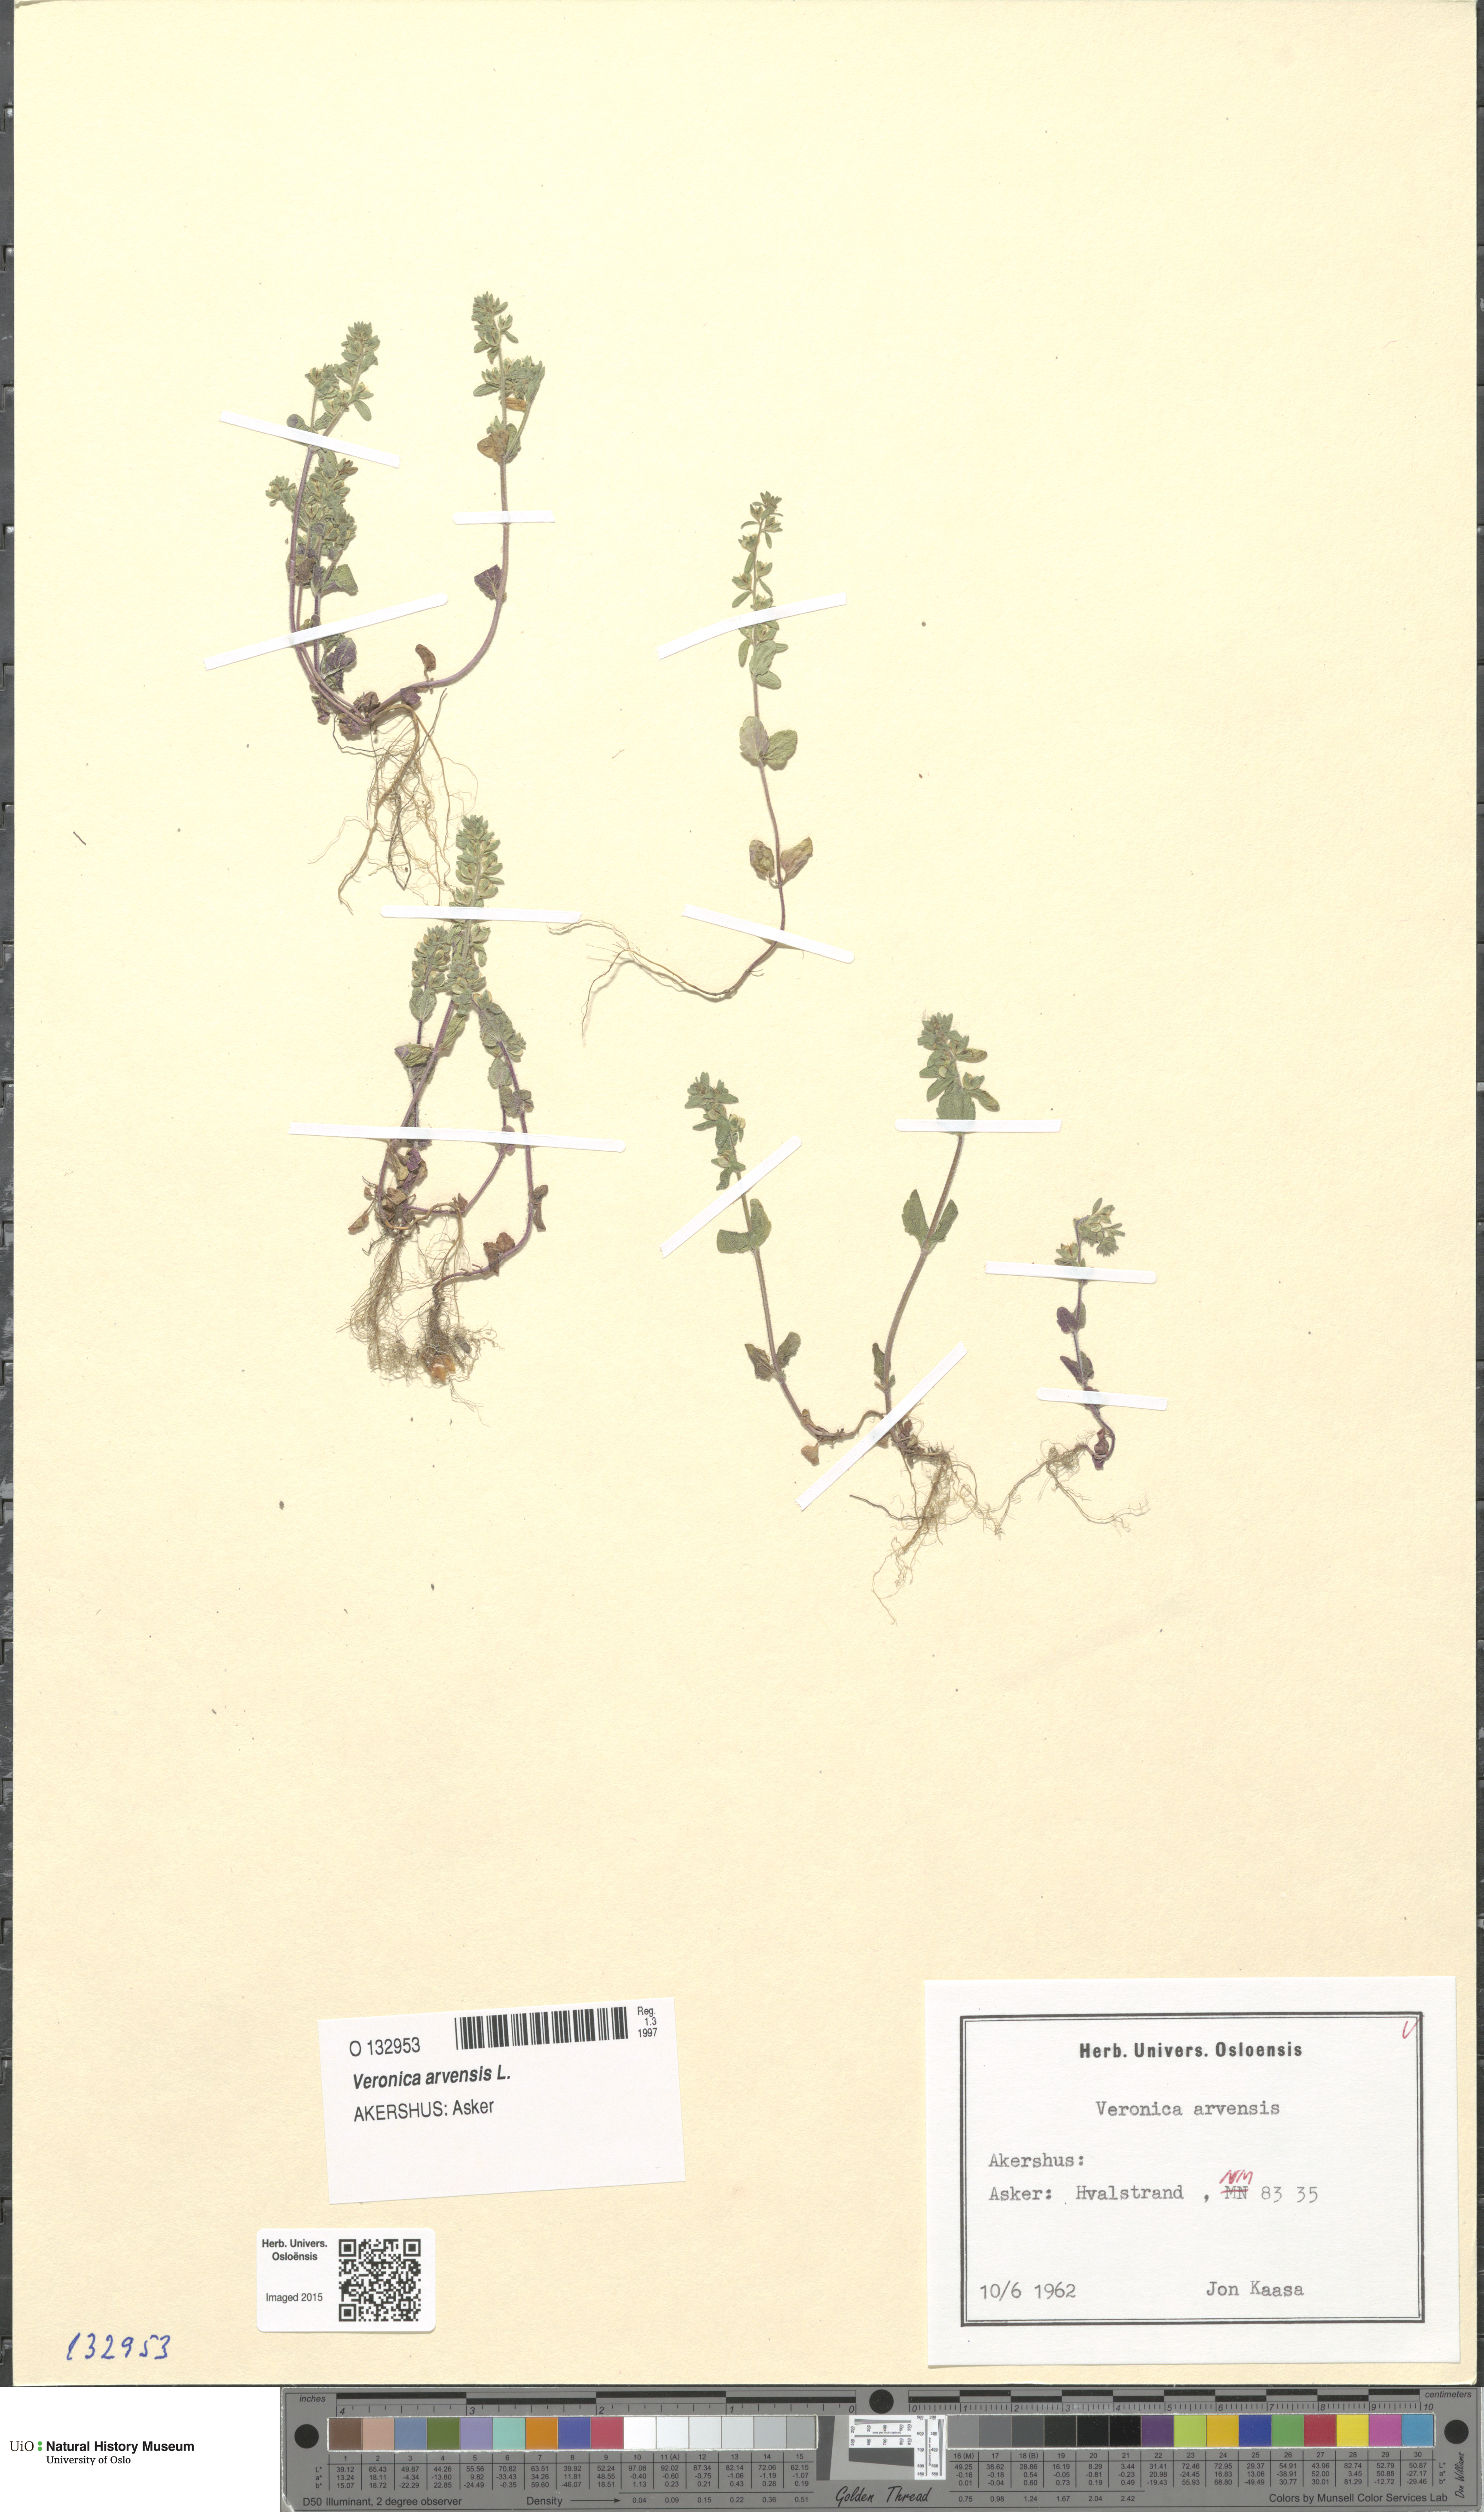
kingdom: Plantae
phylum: Tracheophyta
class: Magnoliopsida
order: Lamiales
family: Plantaginaceae
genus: Veronica
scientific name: Veronica arvensis
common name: Corn speedwell
